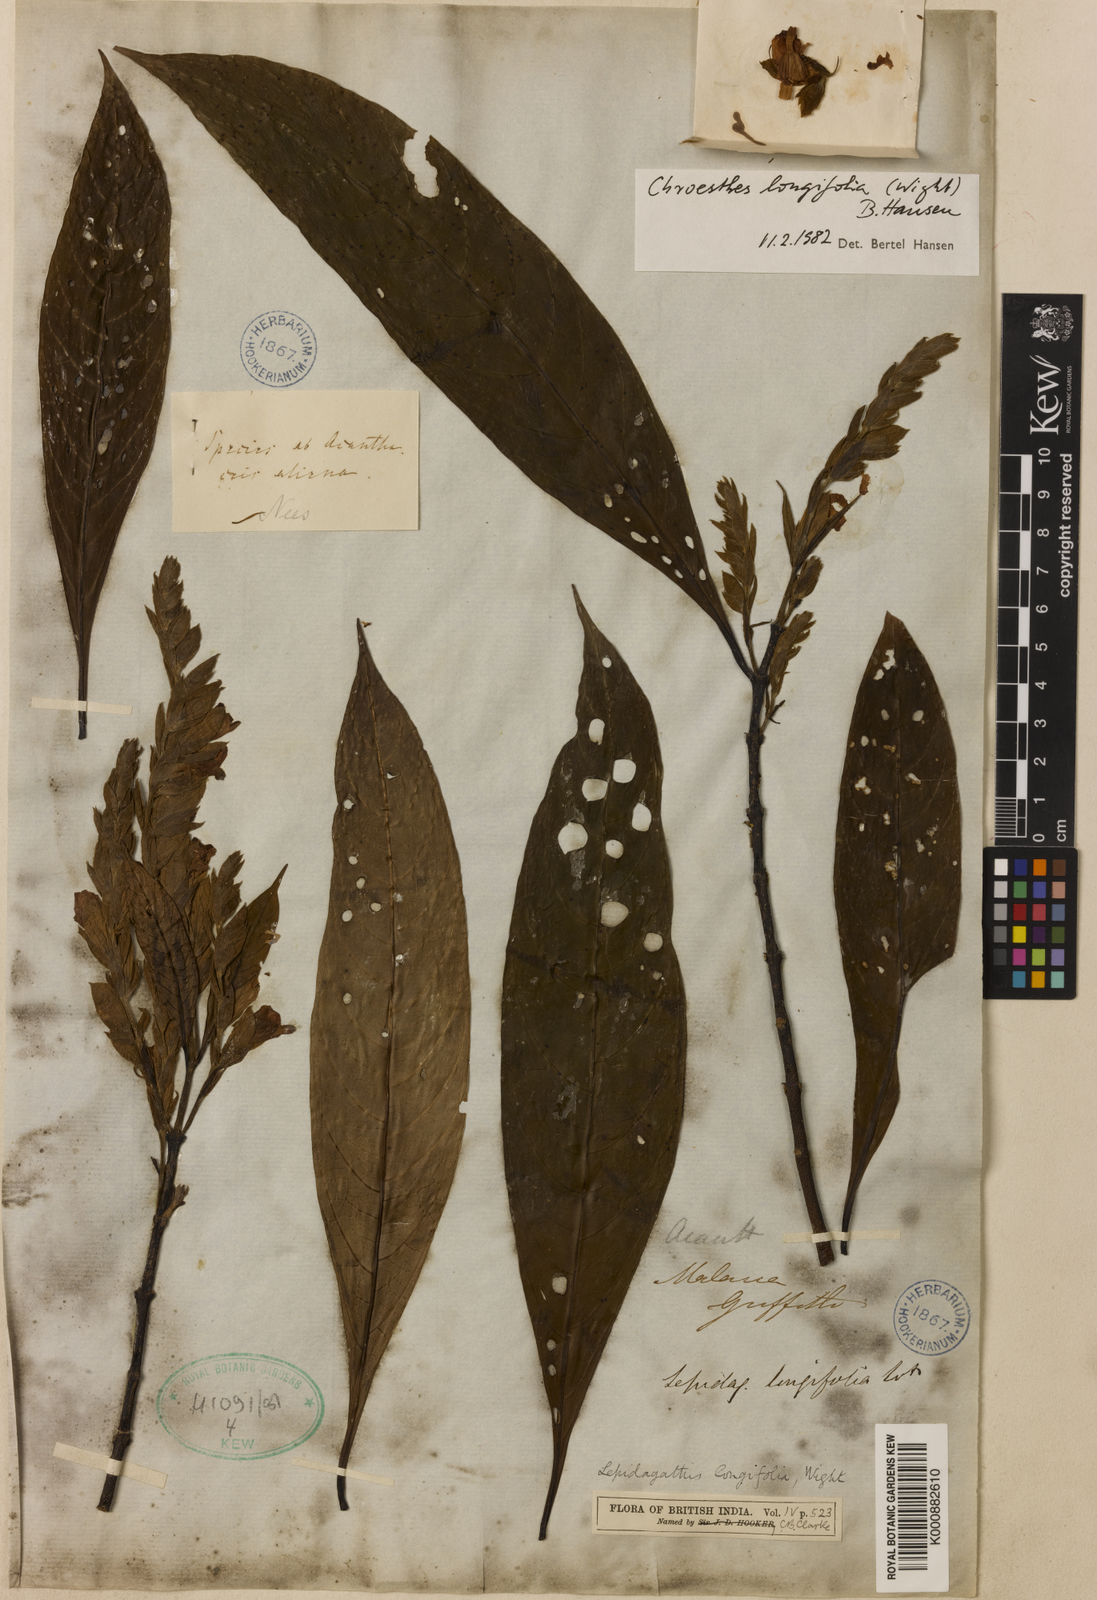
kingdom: Plantae
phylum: Tracheophyta
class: Magnoliopsida
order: Lamiales
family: Acanthaceae
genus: Chroesthes
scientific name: Chroesthes longifolia
